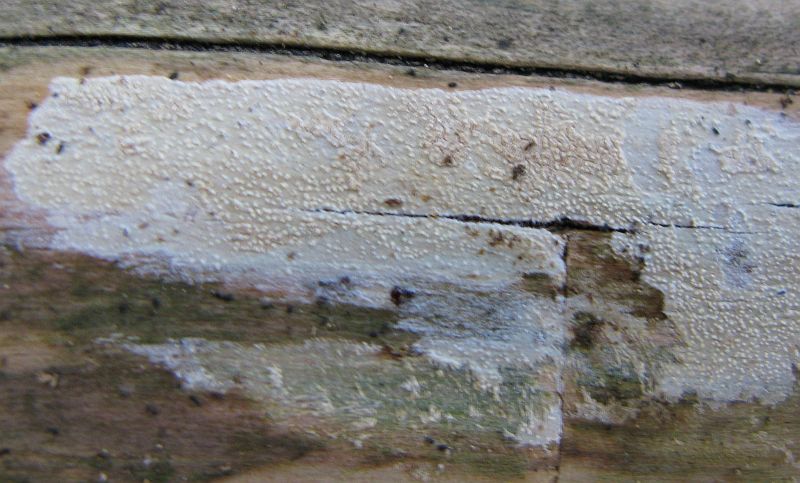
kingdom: Fungi
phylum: Basidiomycota
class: Agaricomycetes
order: Corticiales
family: Corticiaceae
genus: Lyomyces
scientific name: Lyomyces crustosus
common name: vortet hyldehinde
